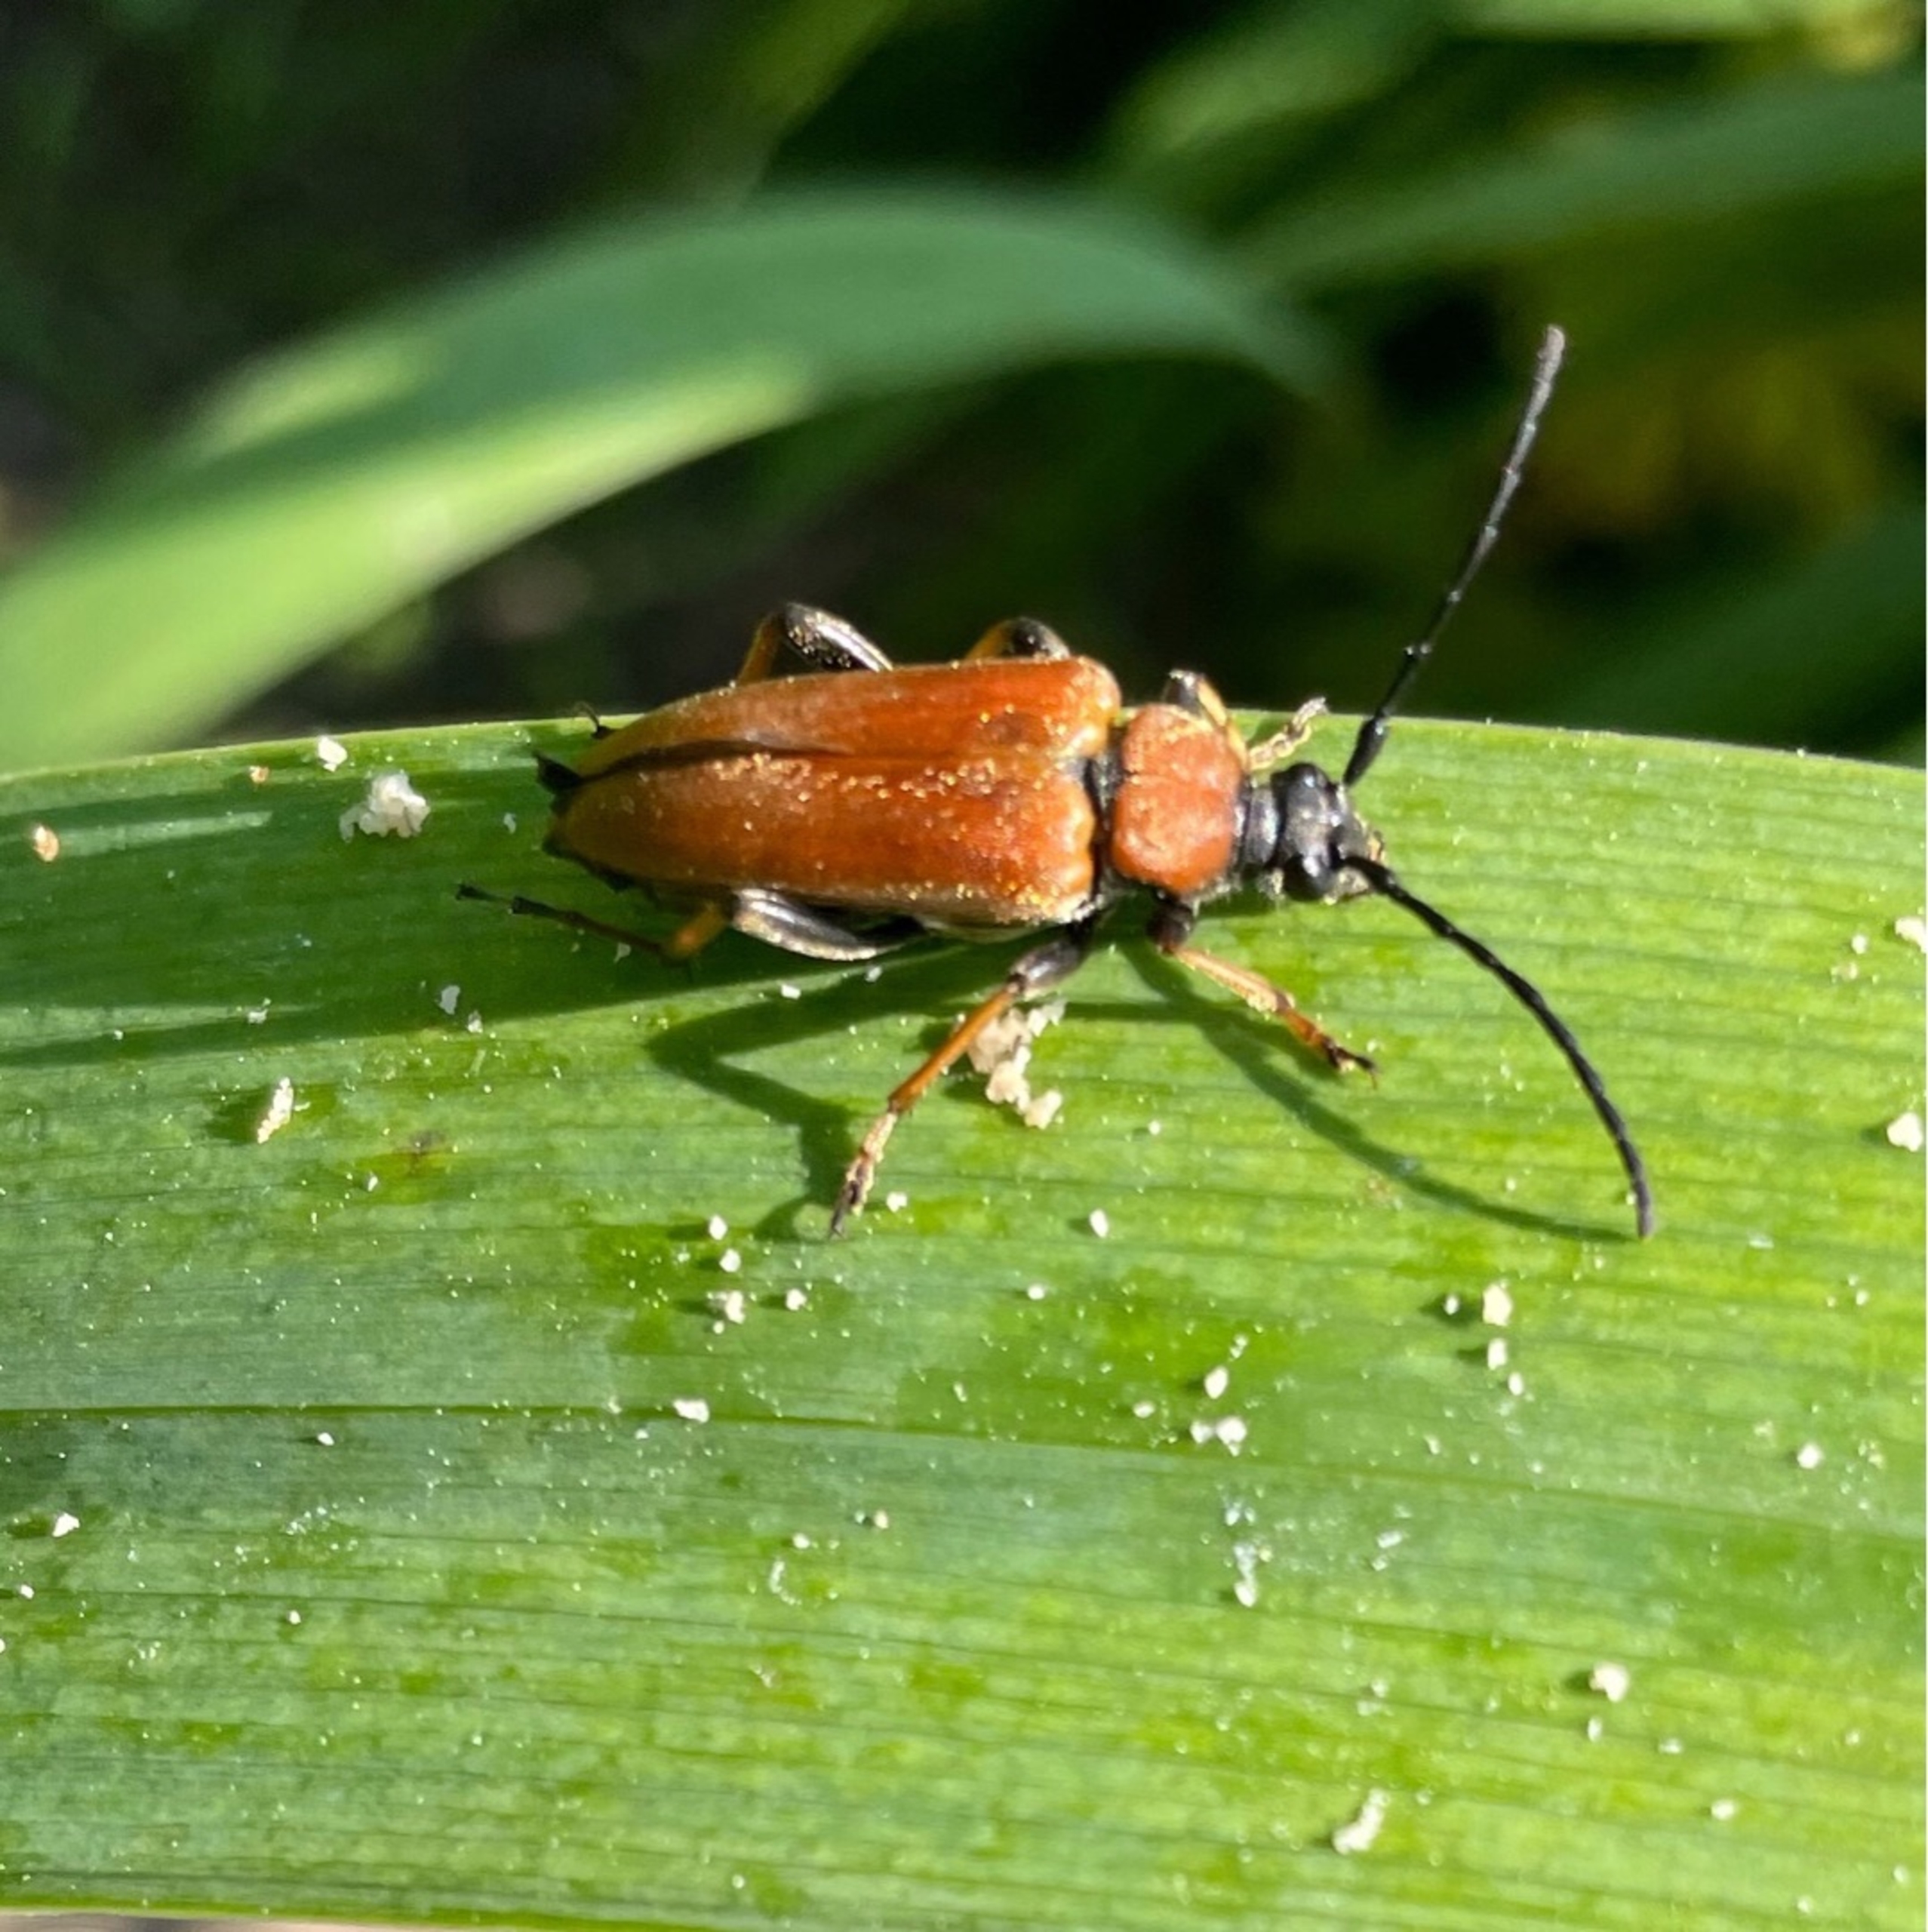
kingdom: Animalia
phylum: Arthropoda
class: Insecta
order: Coleoptera
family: Cerambycidae
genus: Stictoleptura
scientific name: Stictoleptura rubra
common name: Rød blomsterbuk
